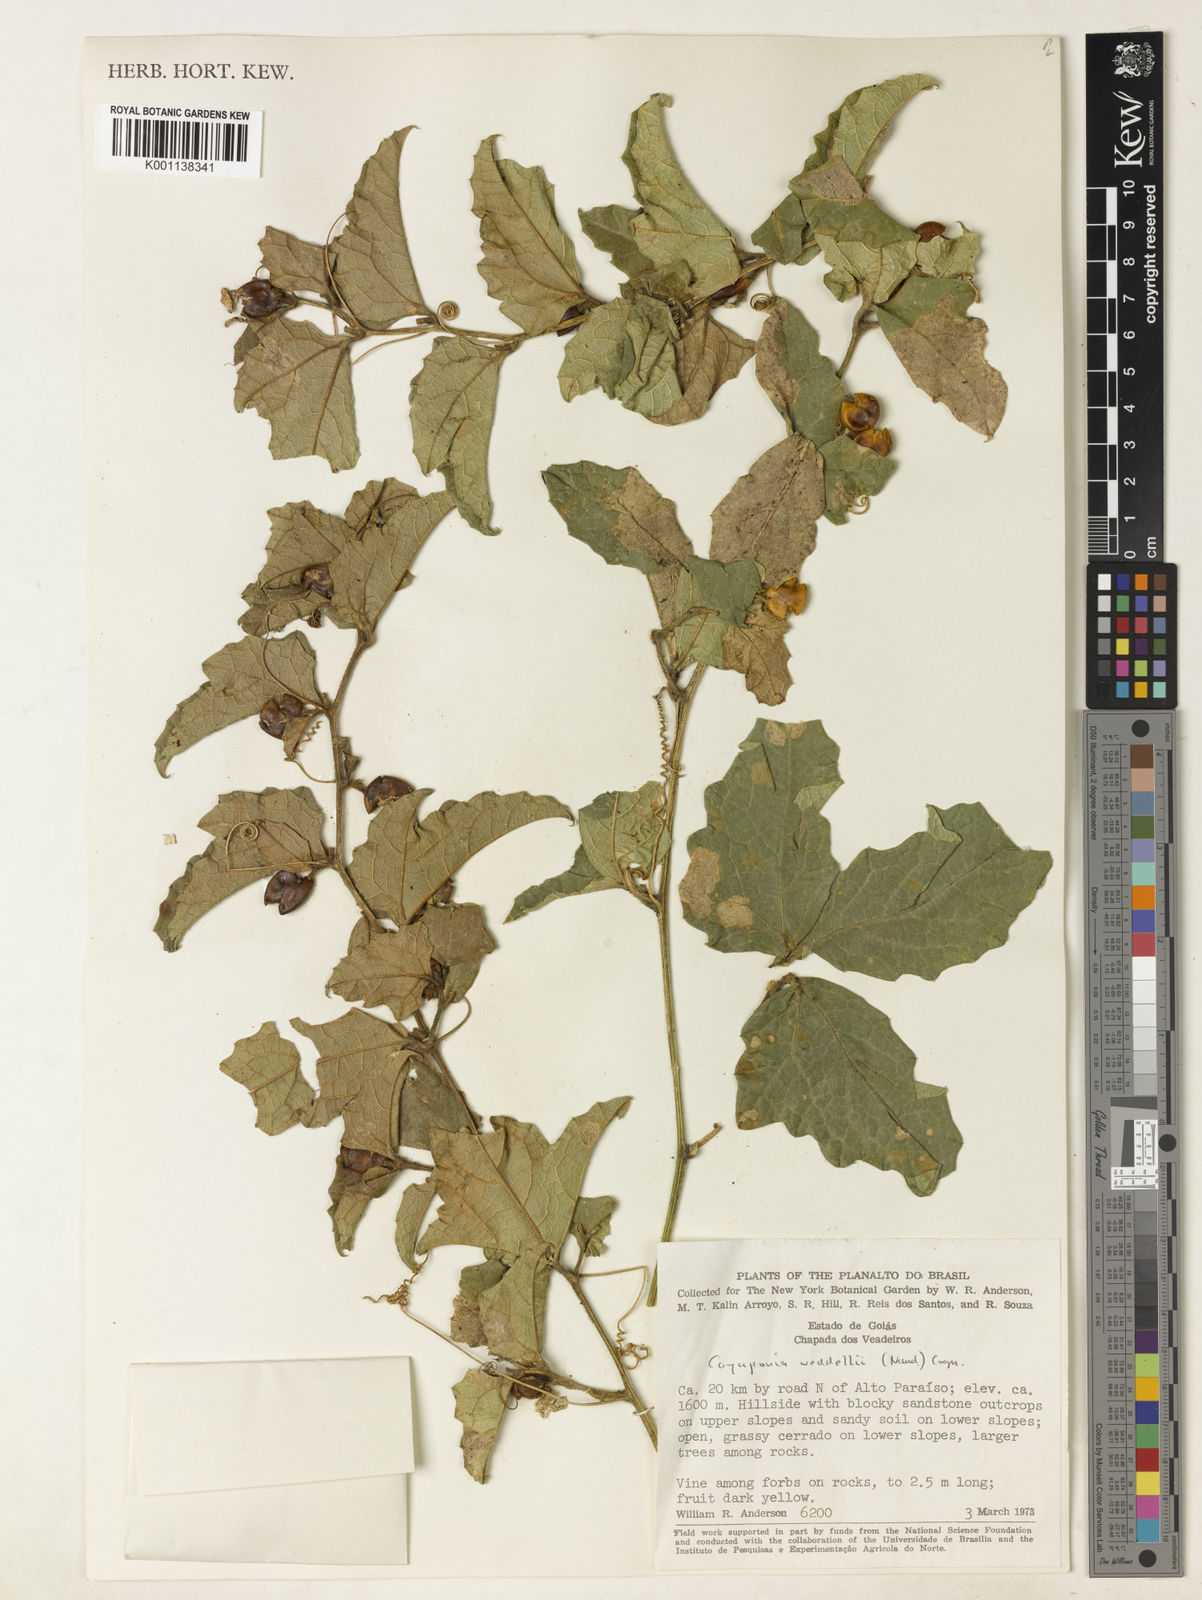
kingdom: Plantae
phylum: Tracheophyta
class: Magnoliopsida
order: Cucurbitales
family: Cucurbitaceae
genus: Cayaponia
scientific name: Cayaponia weddellii
